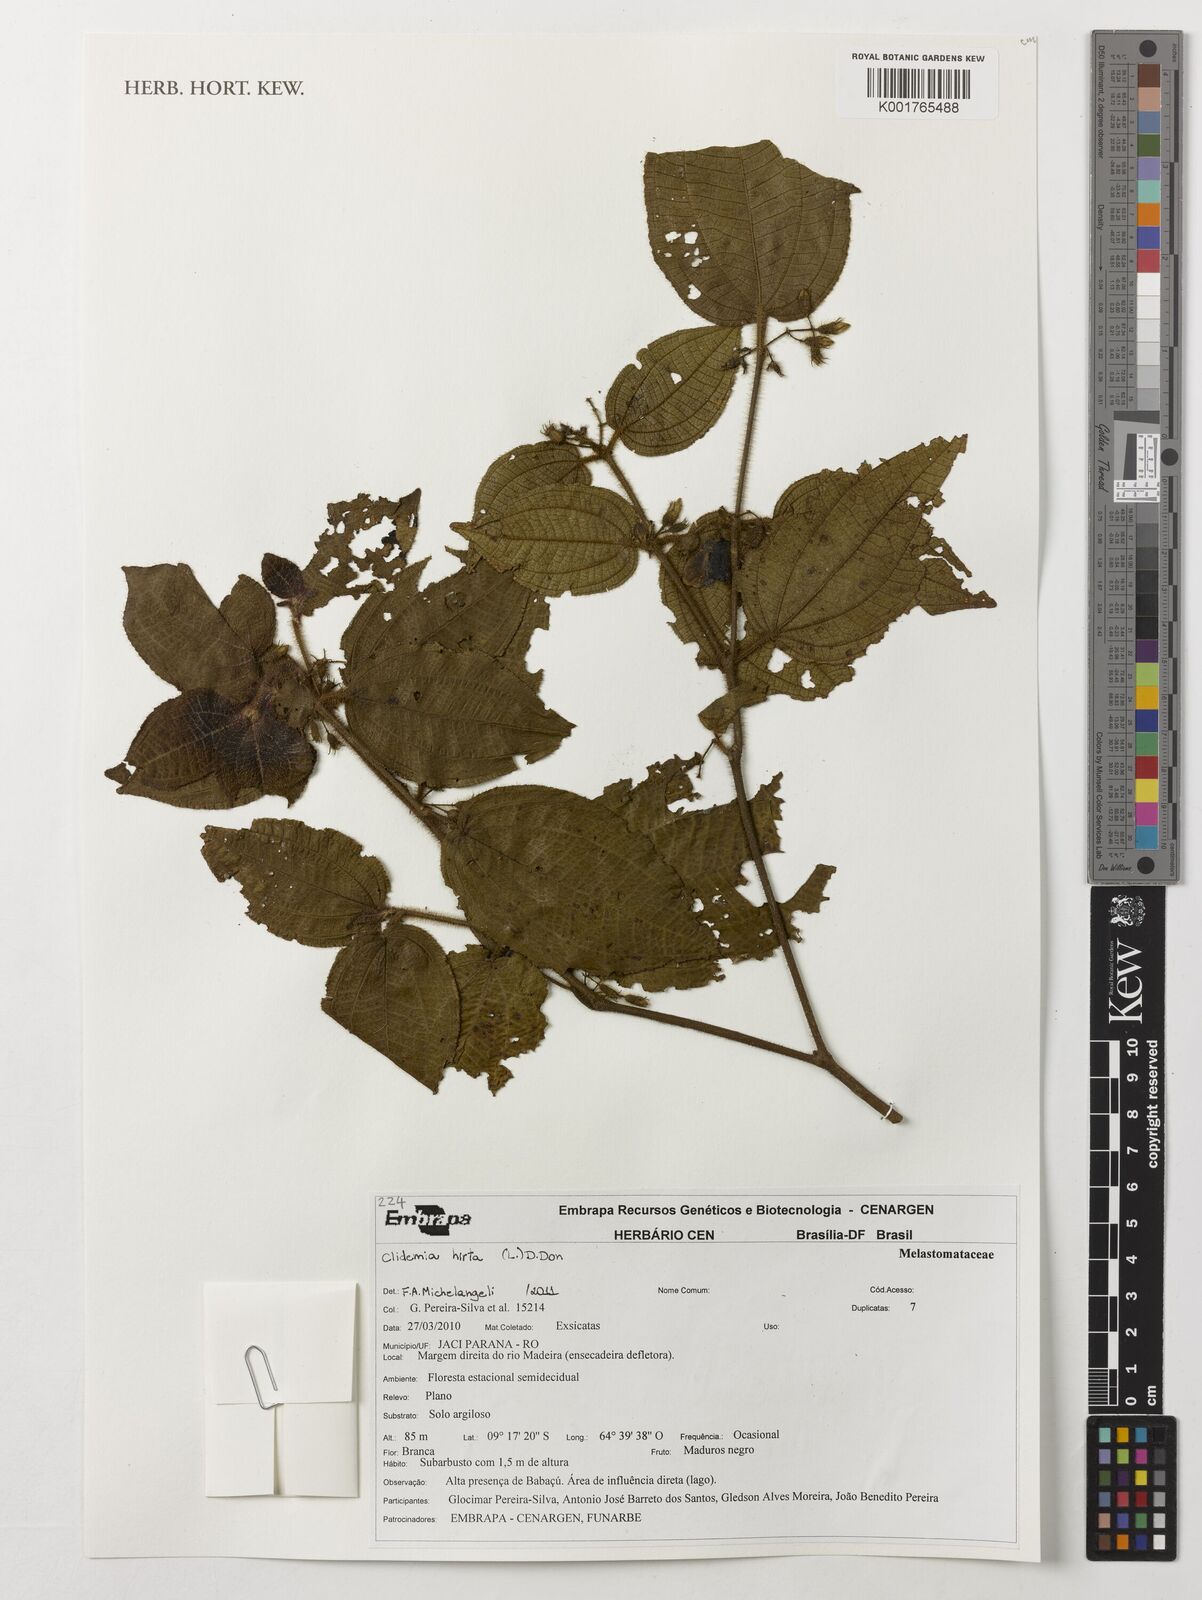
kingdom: Plantae
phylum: Tracheophyta
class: Magnoliopsida
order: Myrtales
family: Melastomataceae
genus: Miconia
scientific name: Miconia crenata
